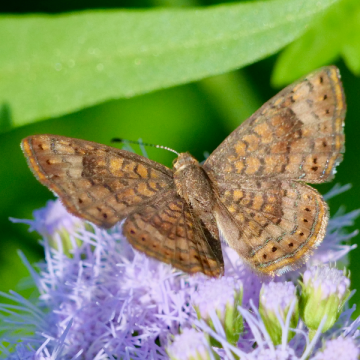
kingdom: Animalia
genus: Calephelis
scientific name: Calephelis nemesis
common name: Fatal Metalmark
